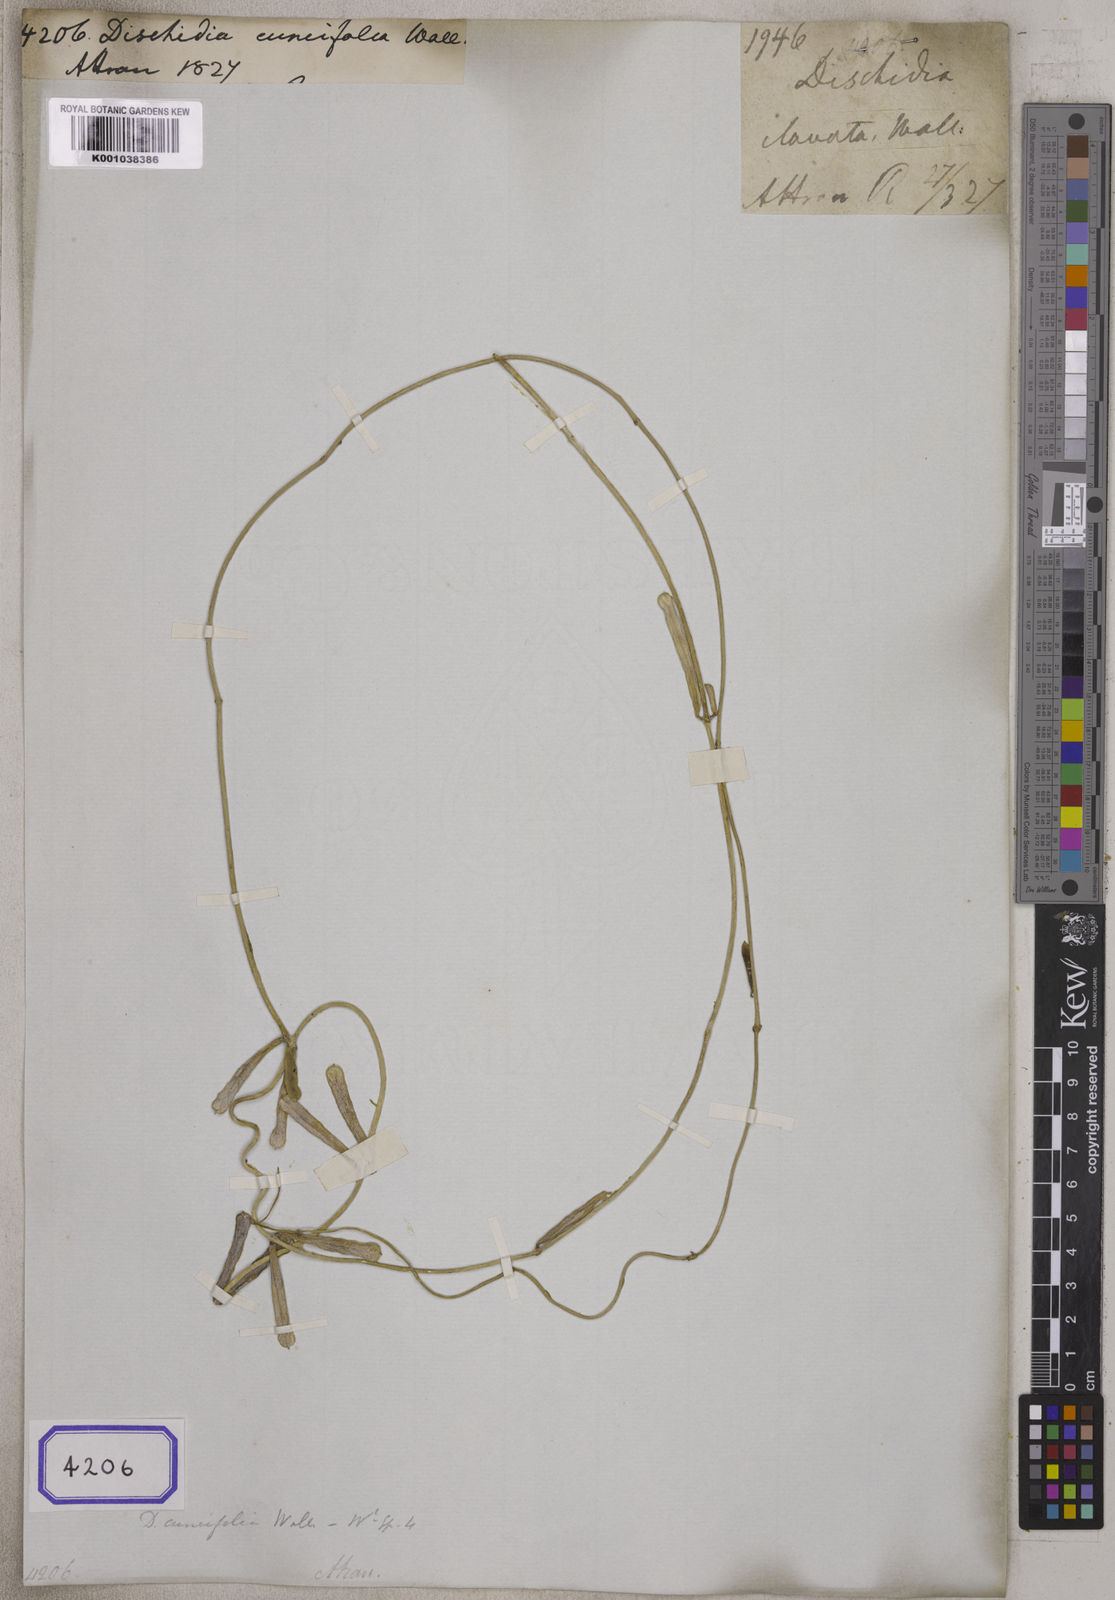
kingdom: Plantae
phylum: Tracheophyta
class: Magnoliopsida
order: Gentianales
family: Apocynaceae
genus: Dischidia
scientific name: Dischidia bengalensis
